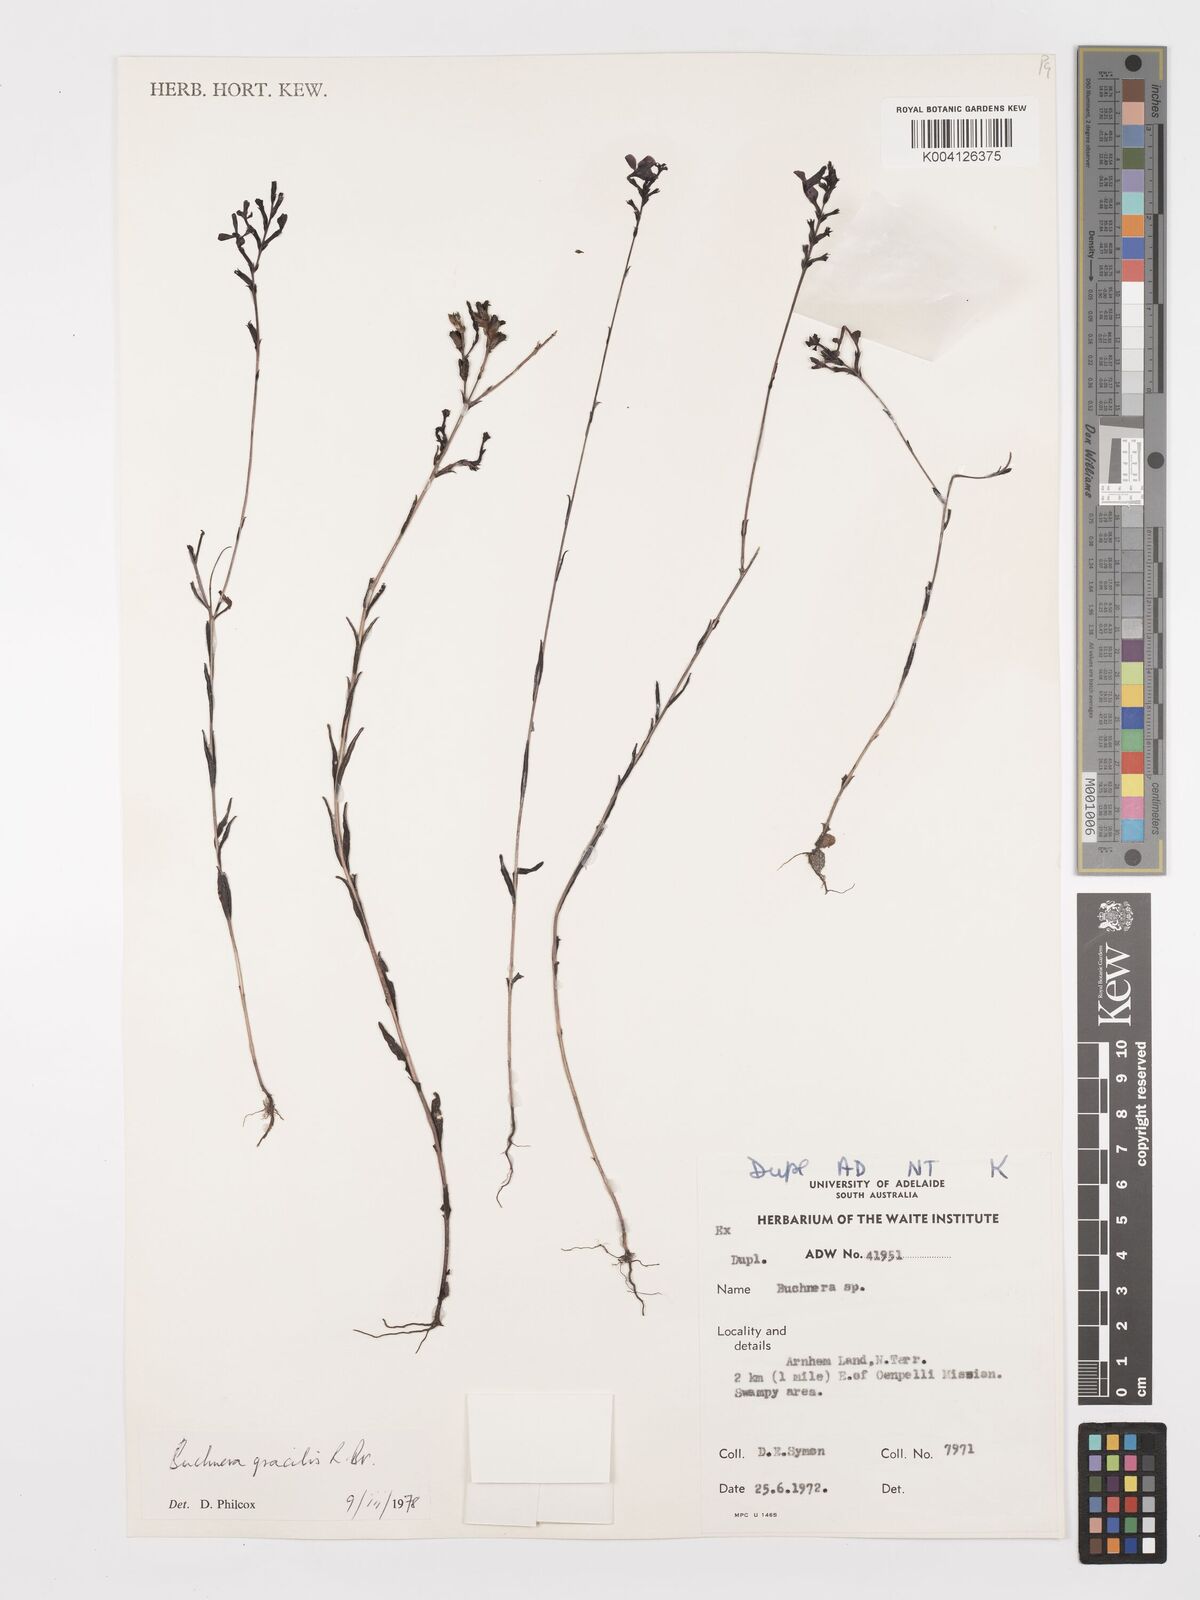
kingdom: Plantae
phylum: Tracheophyta
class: Magnoliopsida
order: Lamiales
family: Orobanchaceae
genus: Buchnera
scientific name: Buchnera gracilis
